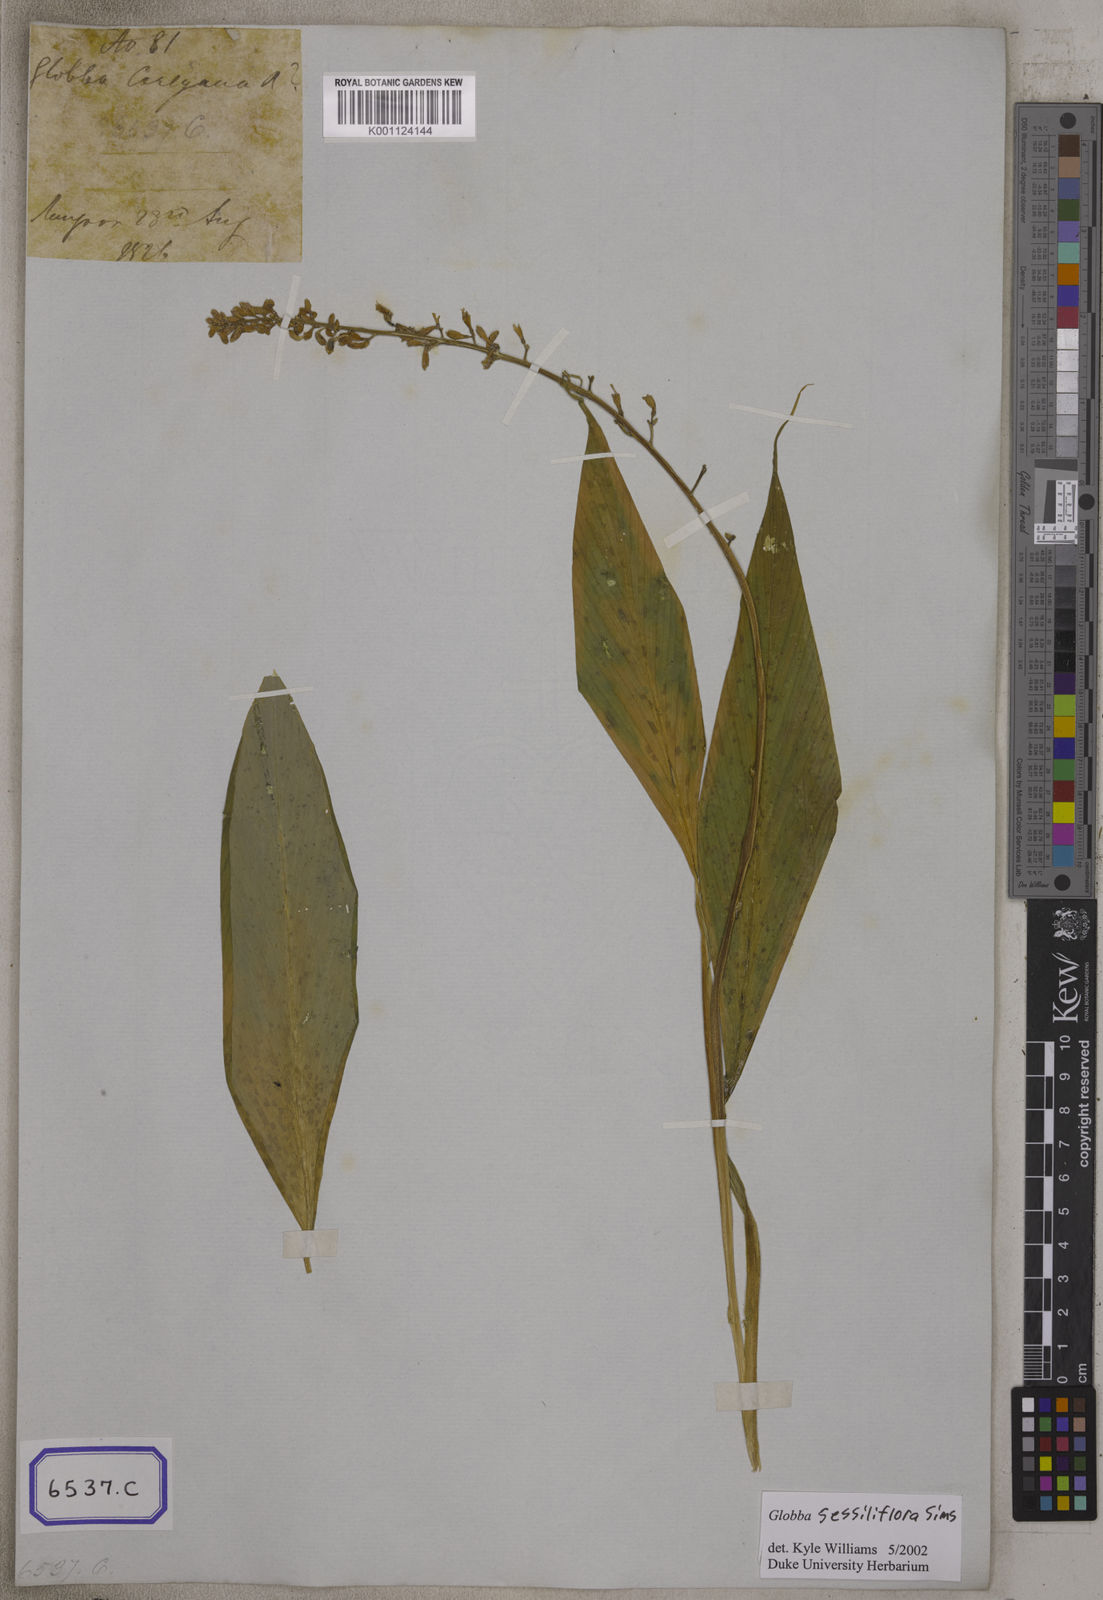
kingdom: Plantae
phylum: Tracheophyta
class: Liliopsida
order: Zingiberales
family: Zingiberaceae
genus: Globba
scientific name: Globba
